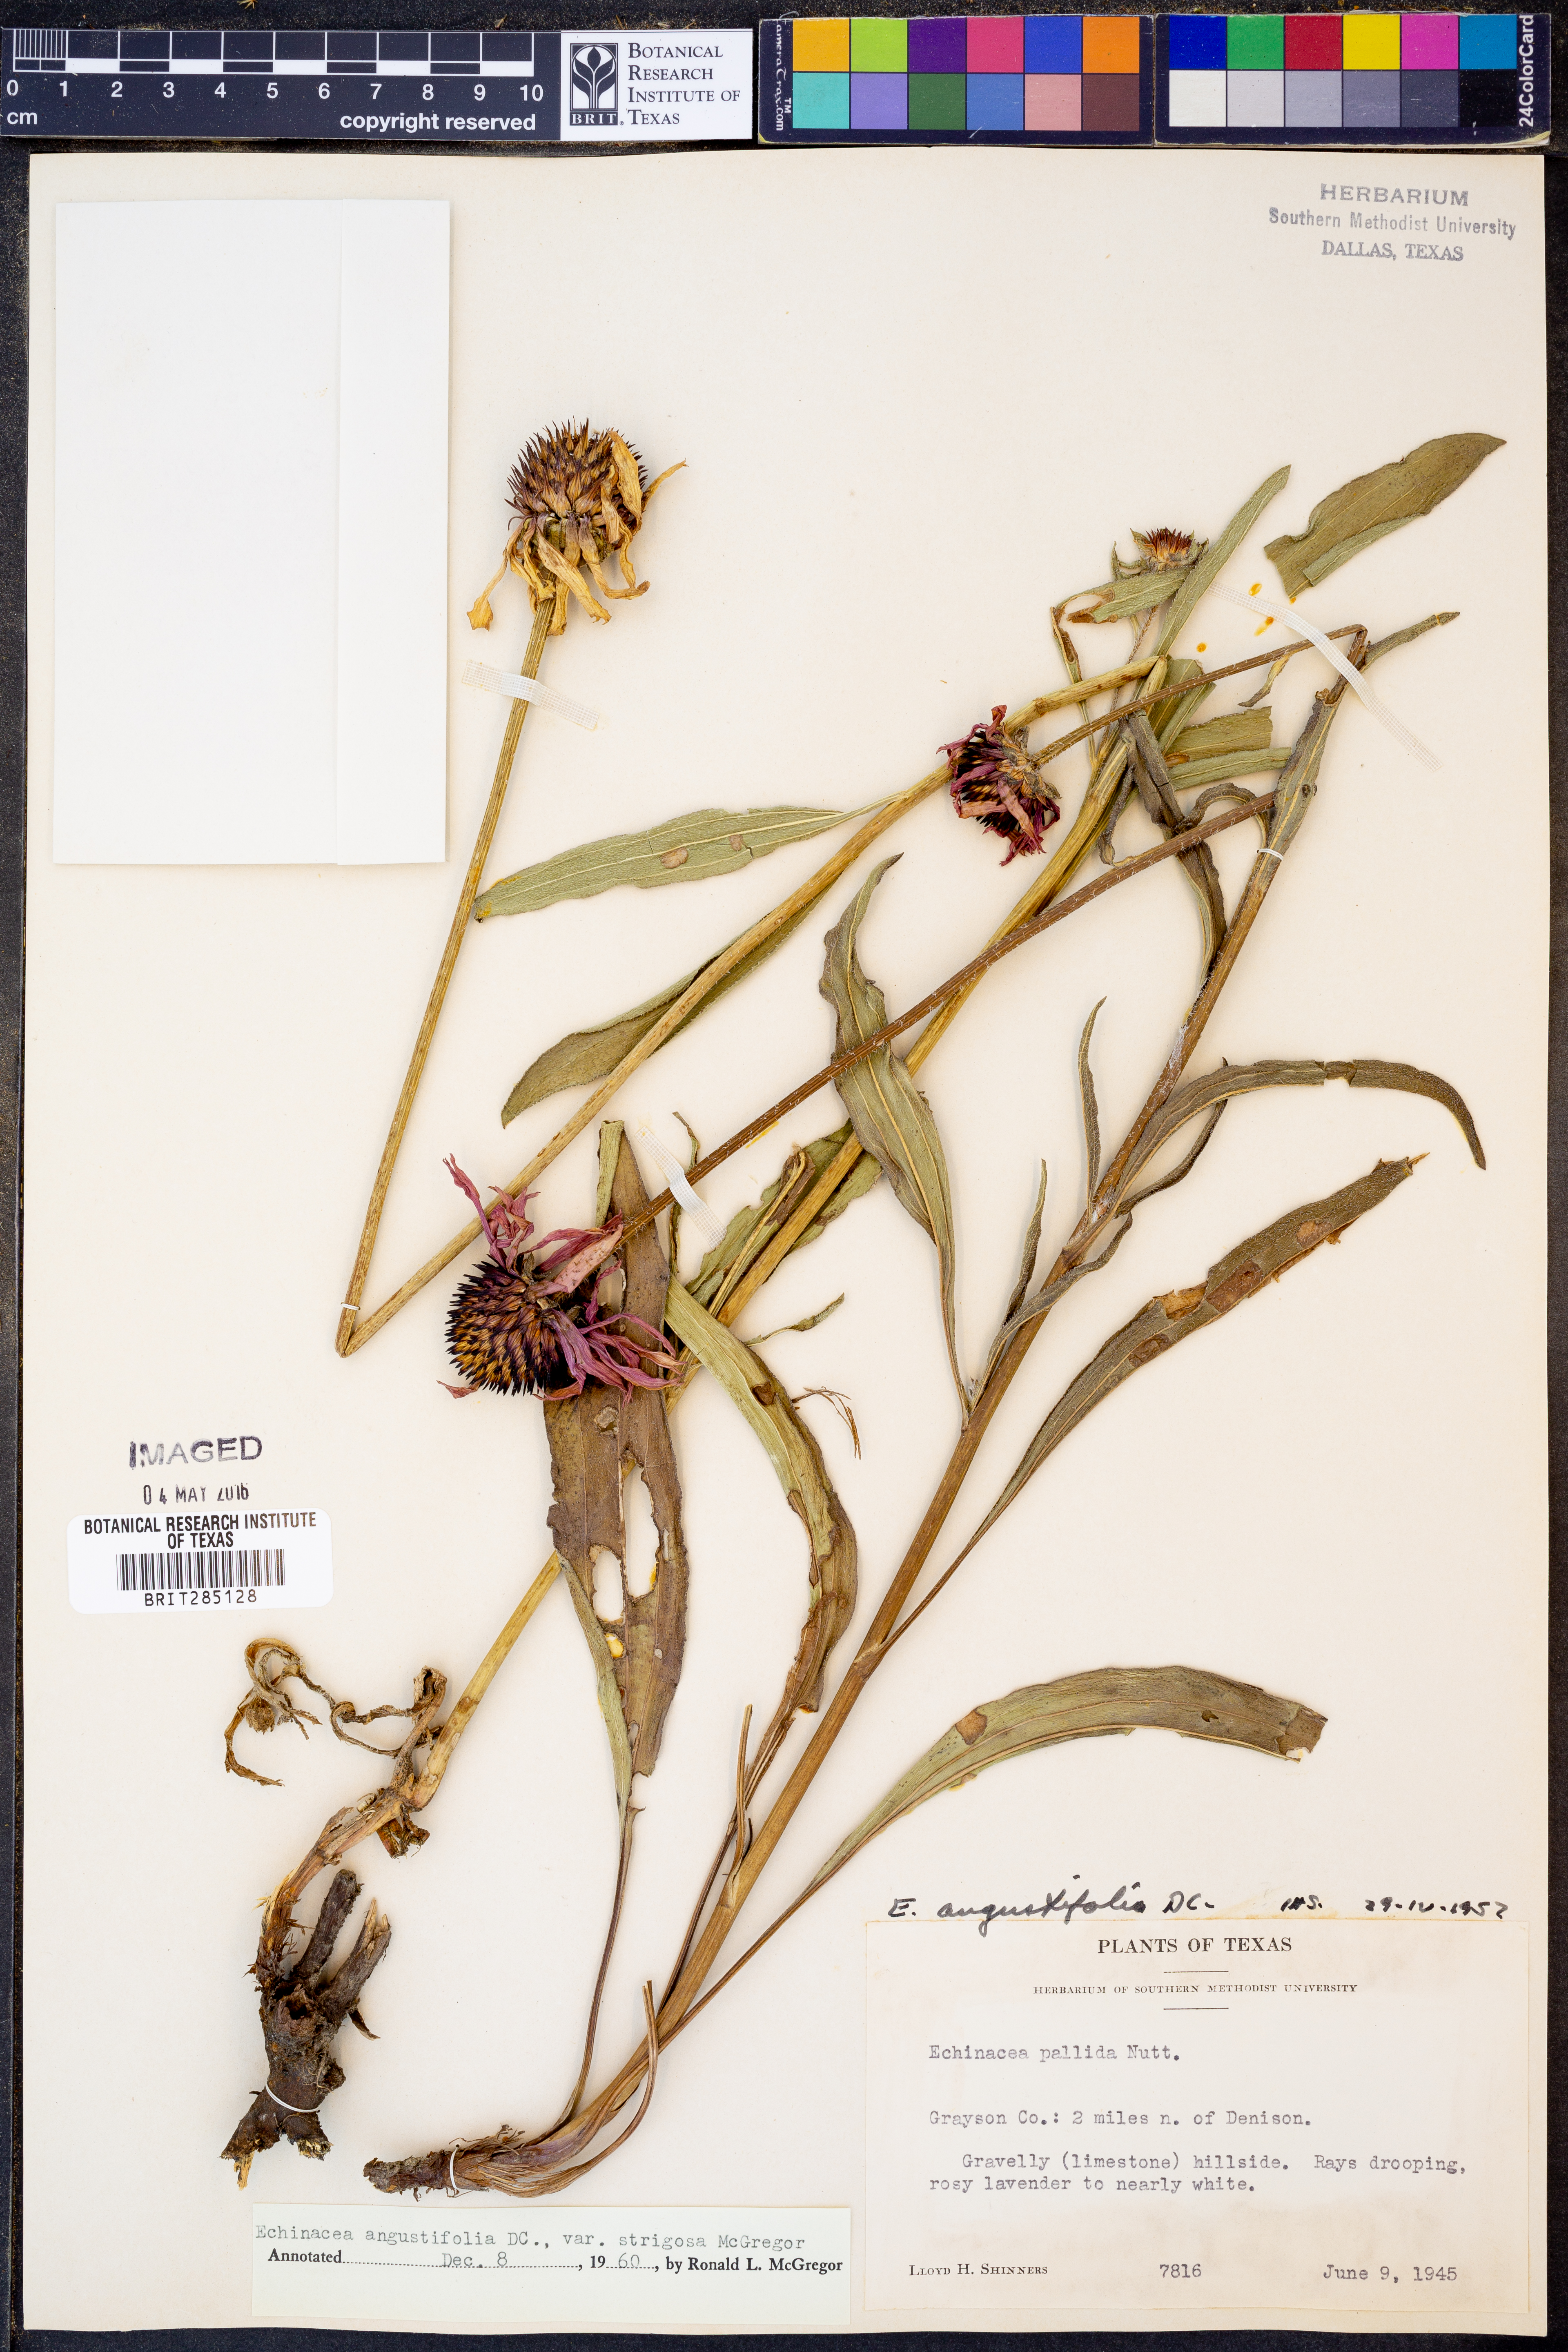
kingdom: Plantae
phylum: Tracheophyta
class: Magnoliopsida
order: Asterales
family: Asteraceae
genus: Echinacea
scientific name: Echinacea angustifolia
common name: Black-sampson echinacea
